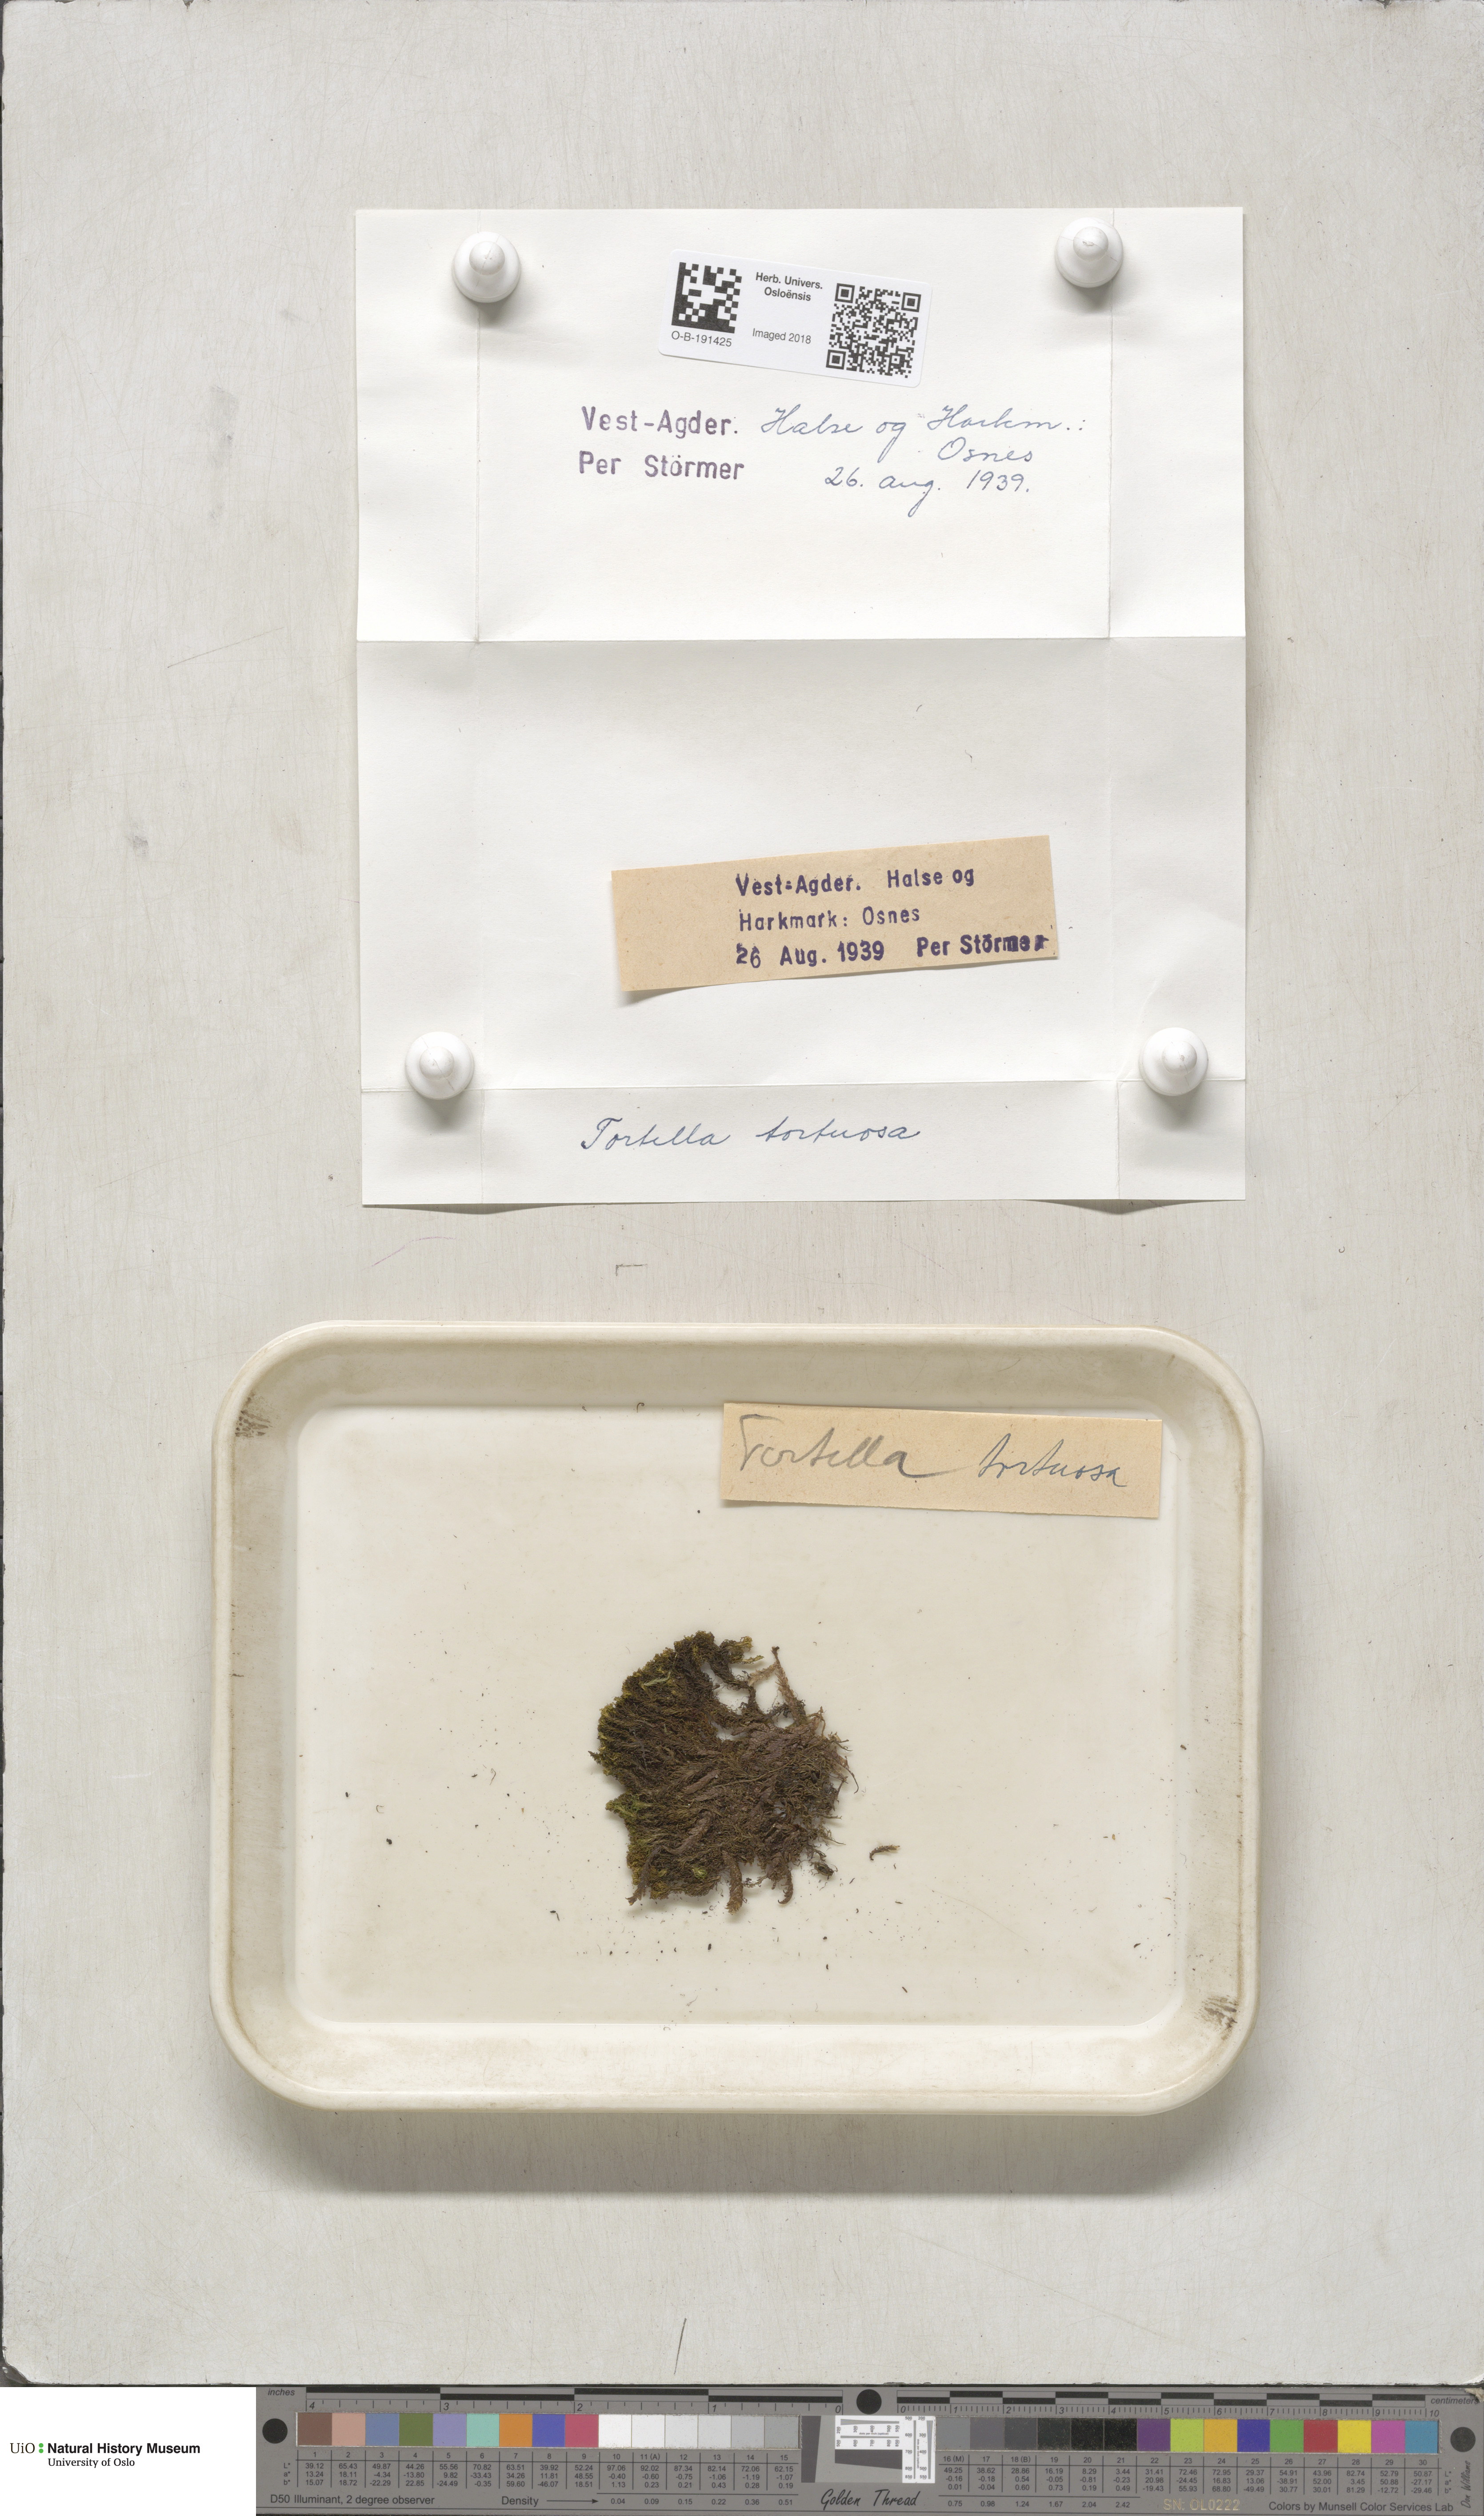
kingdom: Plantae
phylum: Bryophyta
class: Bryopsida
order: Pottiales
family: Pottiaceae
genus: Tortella
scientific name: Tortella tortuosa
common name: Frizzled crisp moss
